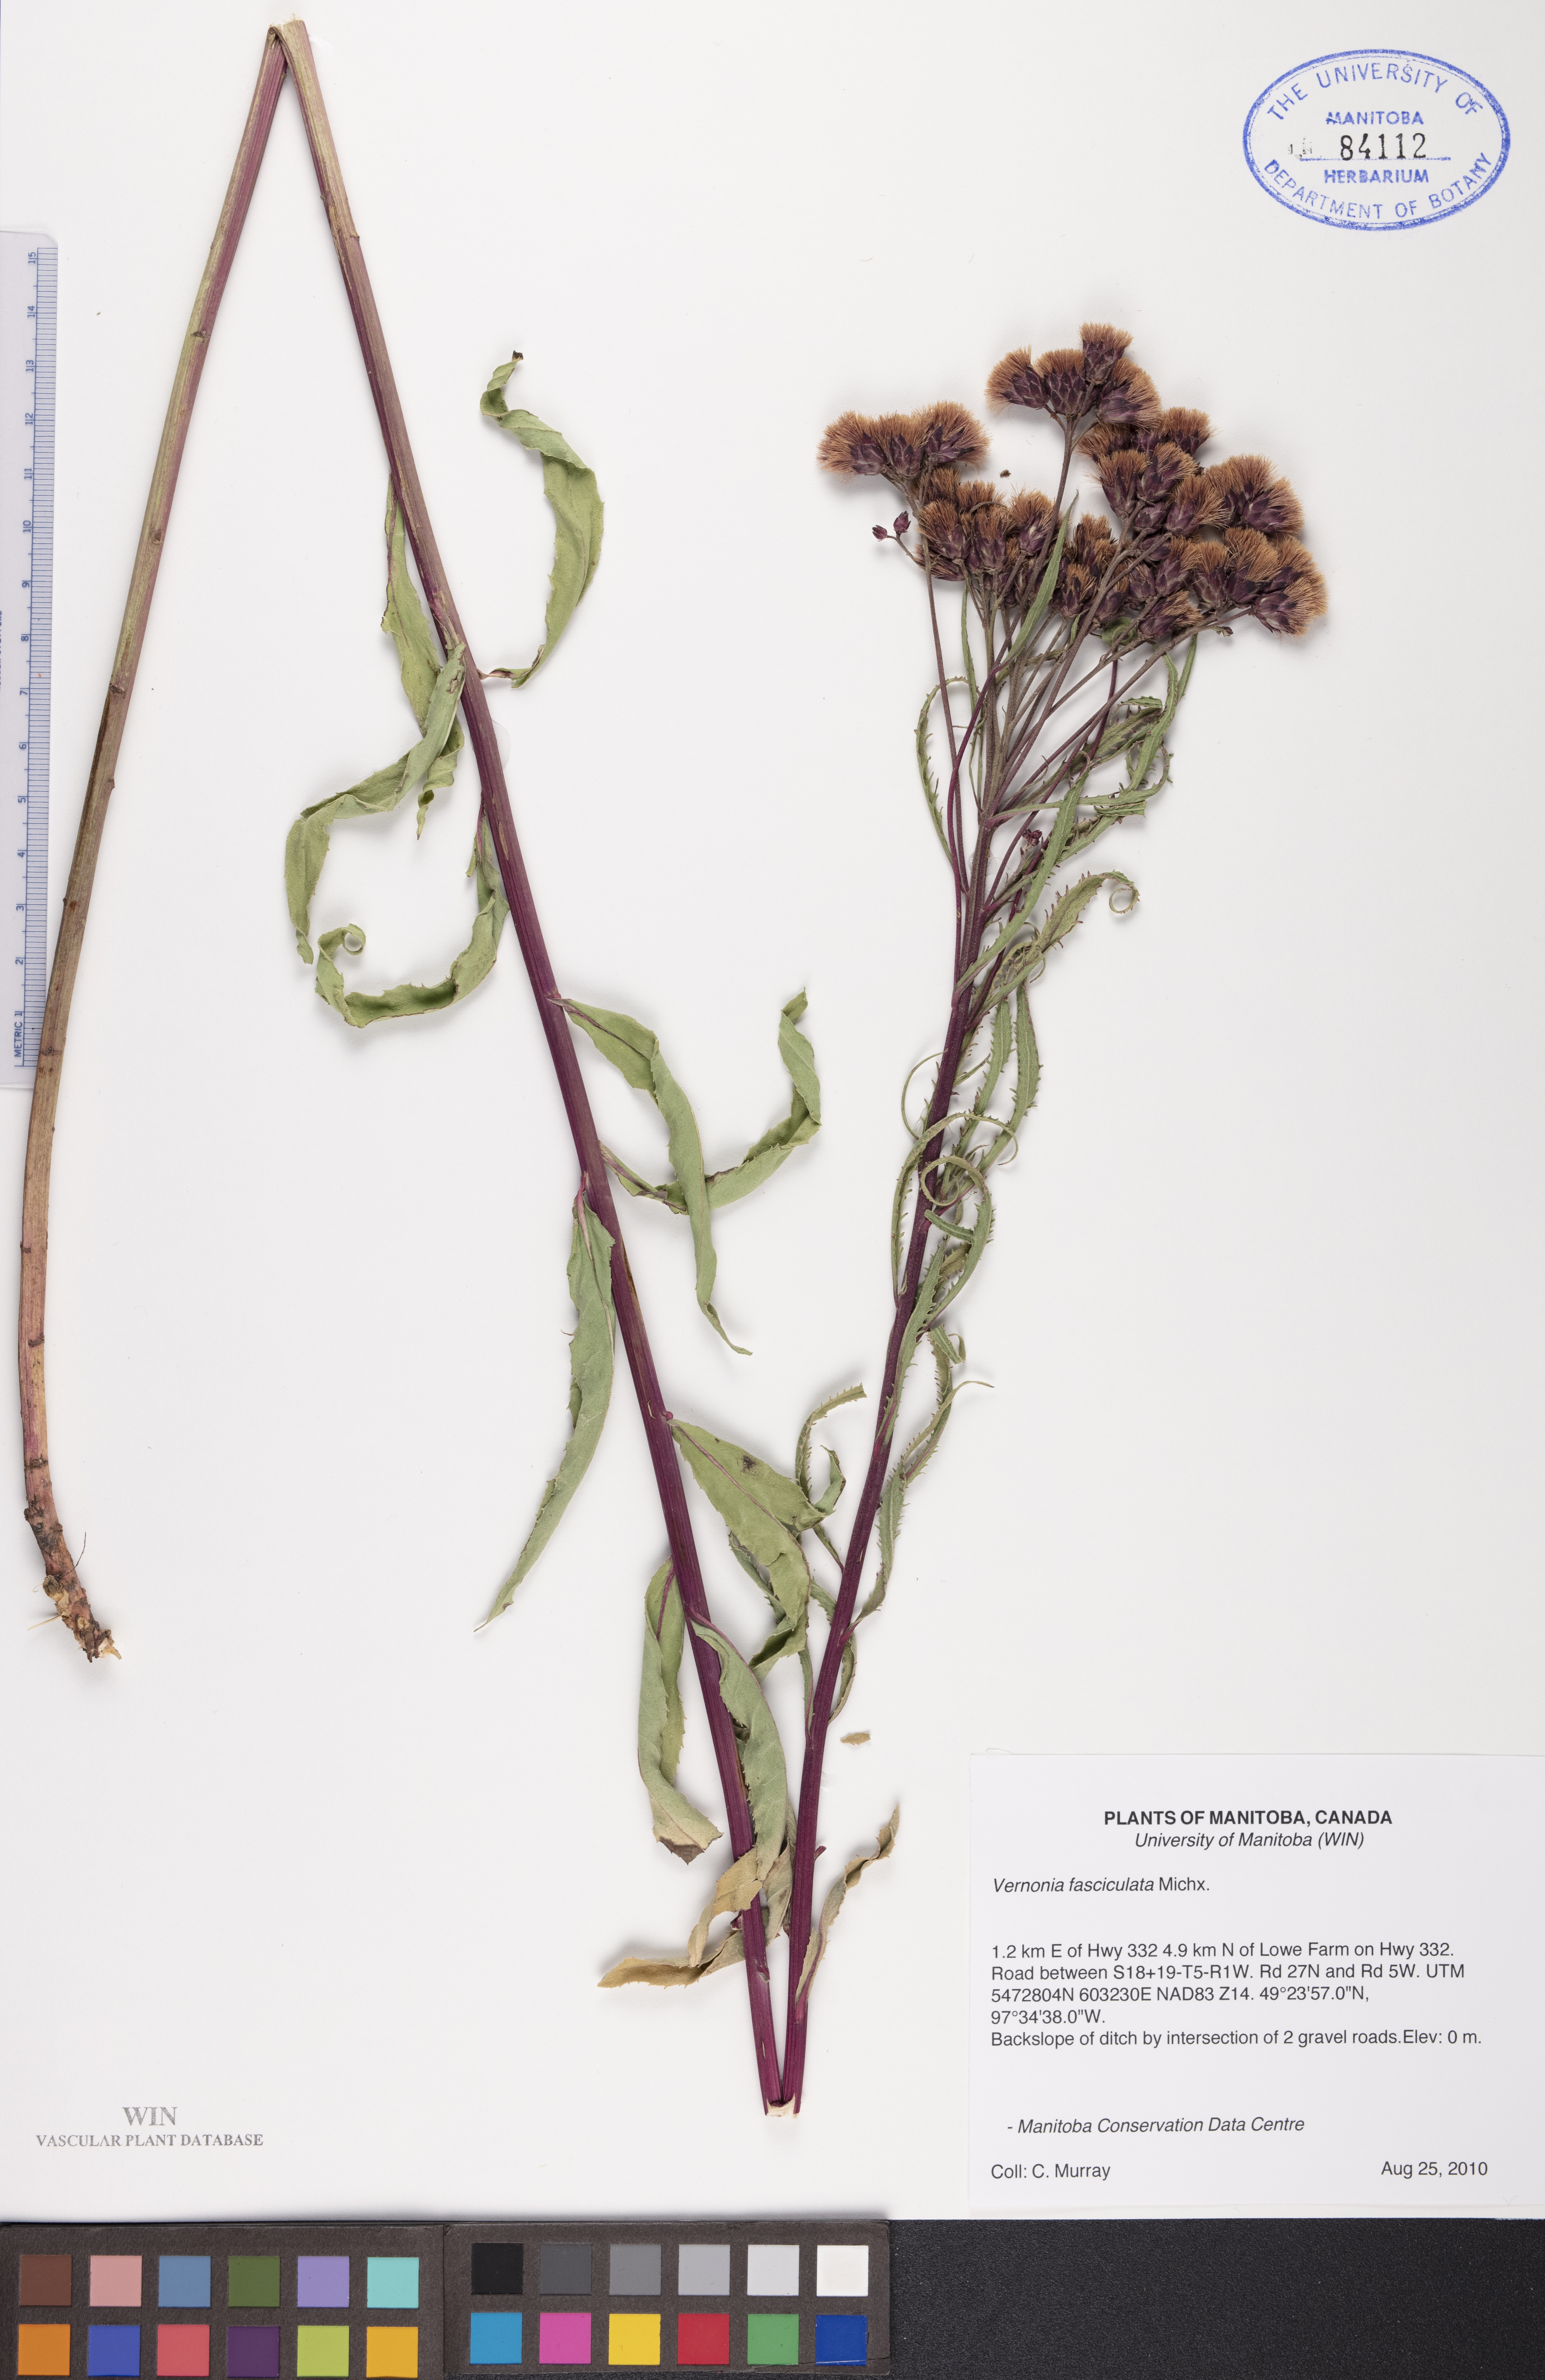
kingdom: Plantae
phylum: Tracheophyta
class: Magnoliopsida
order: Asterales
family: Asteraceae
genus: Vernonia
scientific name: Vernonia fasciculata
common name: Fascicled ironweed
